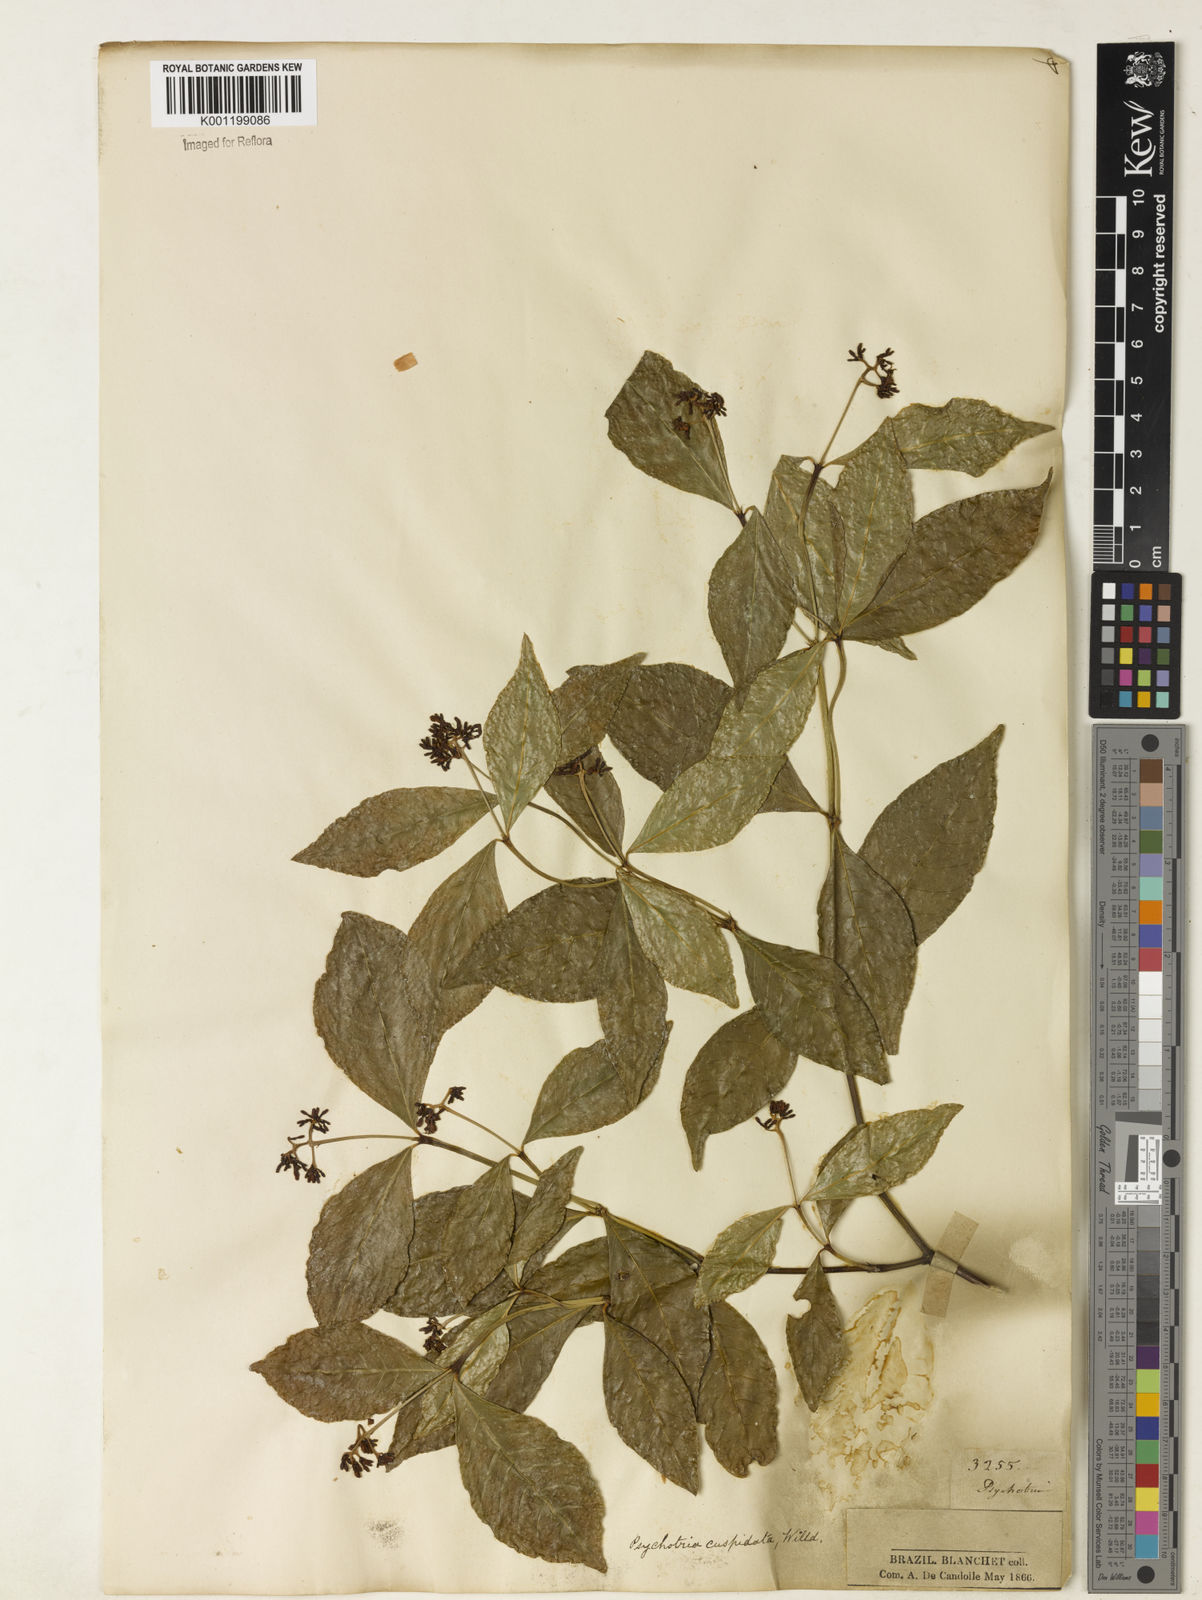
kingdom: Plantae
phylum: Tracheophyta
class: Magnoliopsida
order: Gentianales
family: Rubiaceae
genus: Palicourea
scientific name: Palicourea cuspidata
